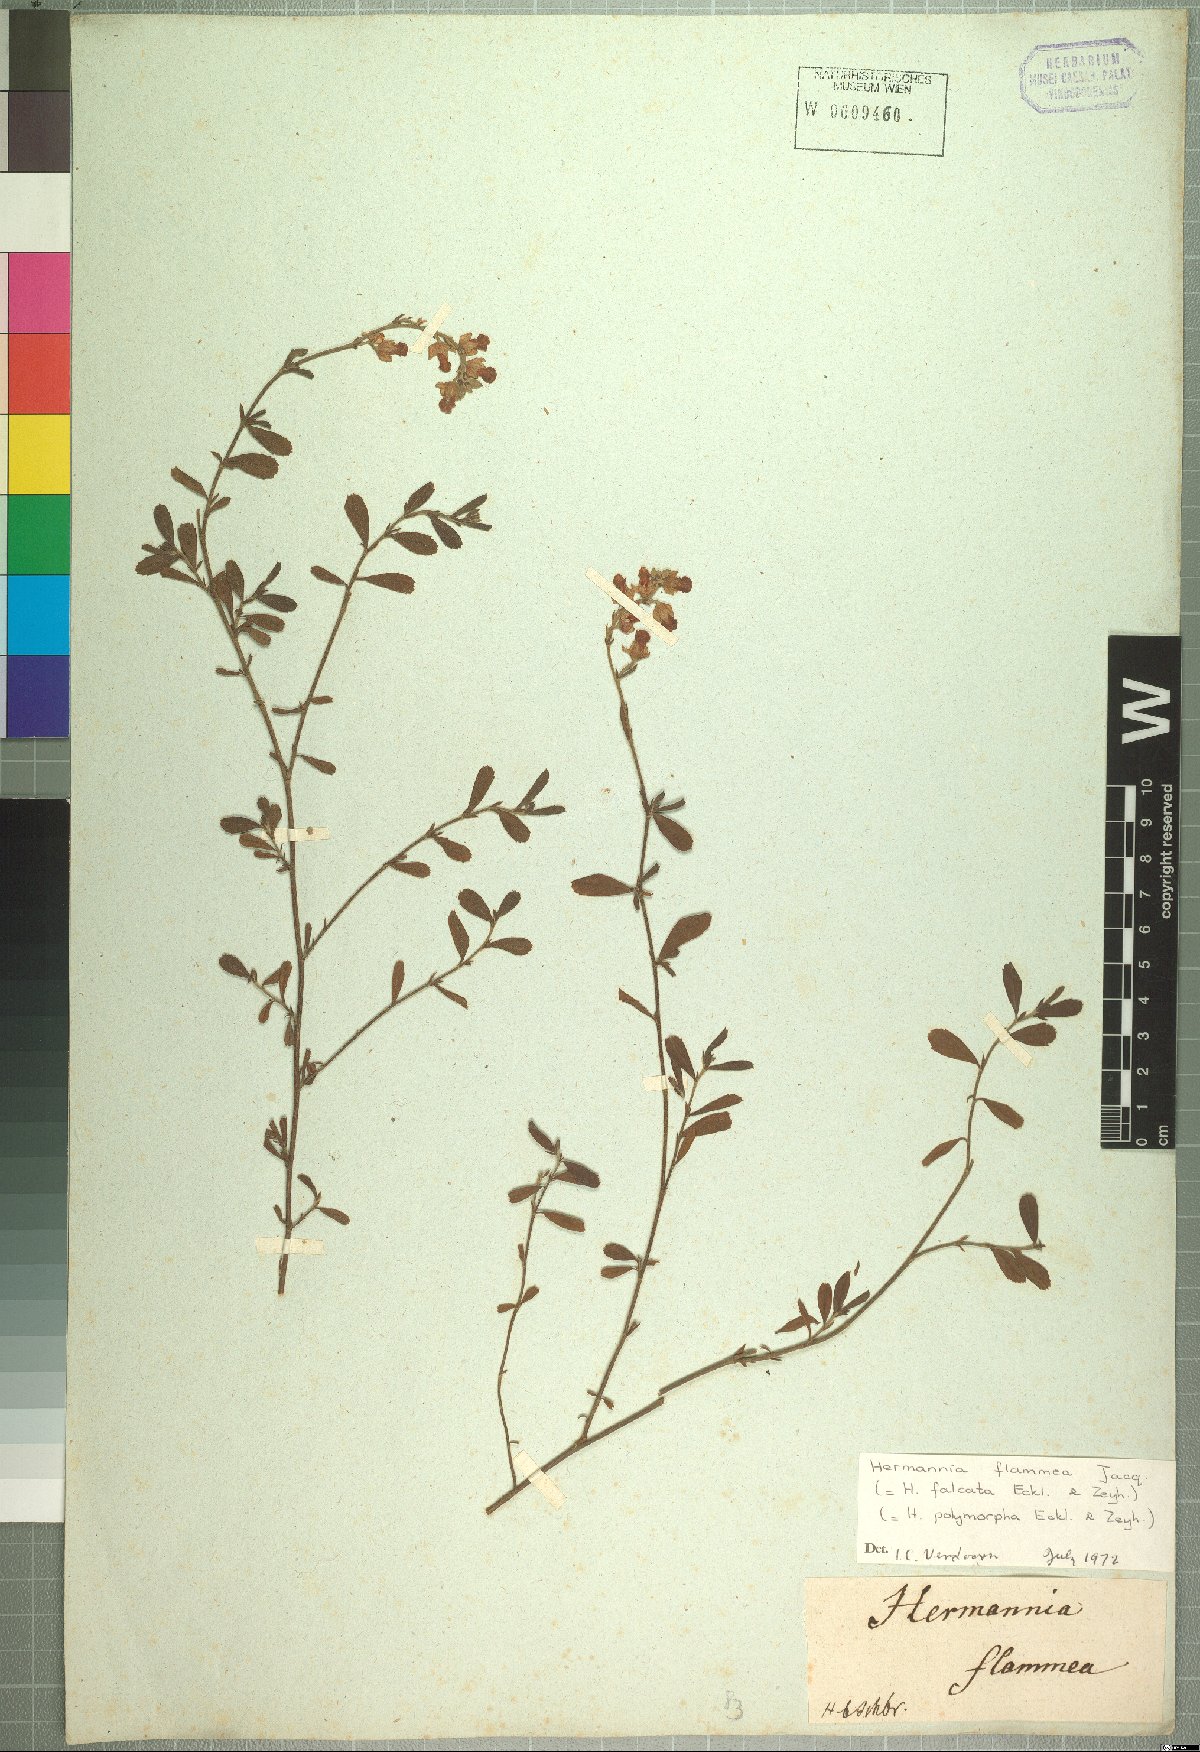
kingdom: Plantae
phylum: Tracheophyta
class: Magnoliopsida
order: Malvales
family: Malvaceae
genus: Hermannia
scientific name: Hermannia flammea
